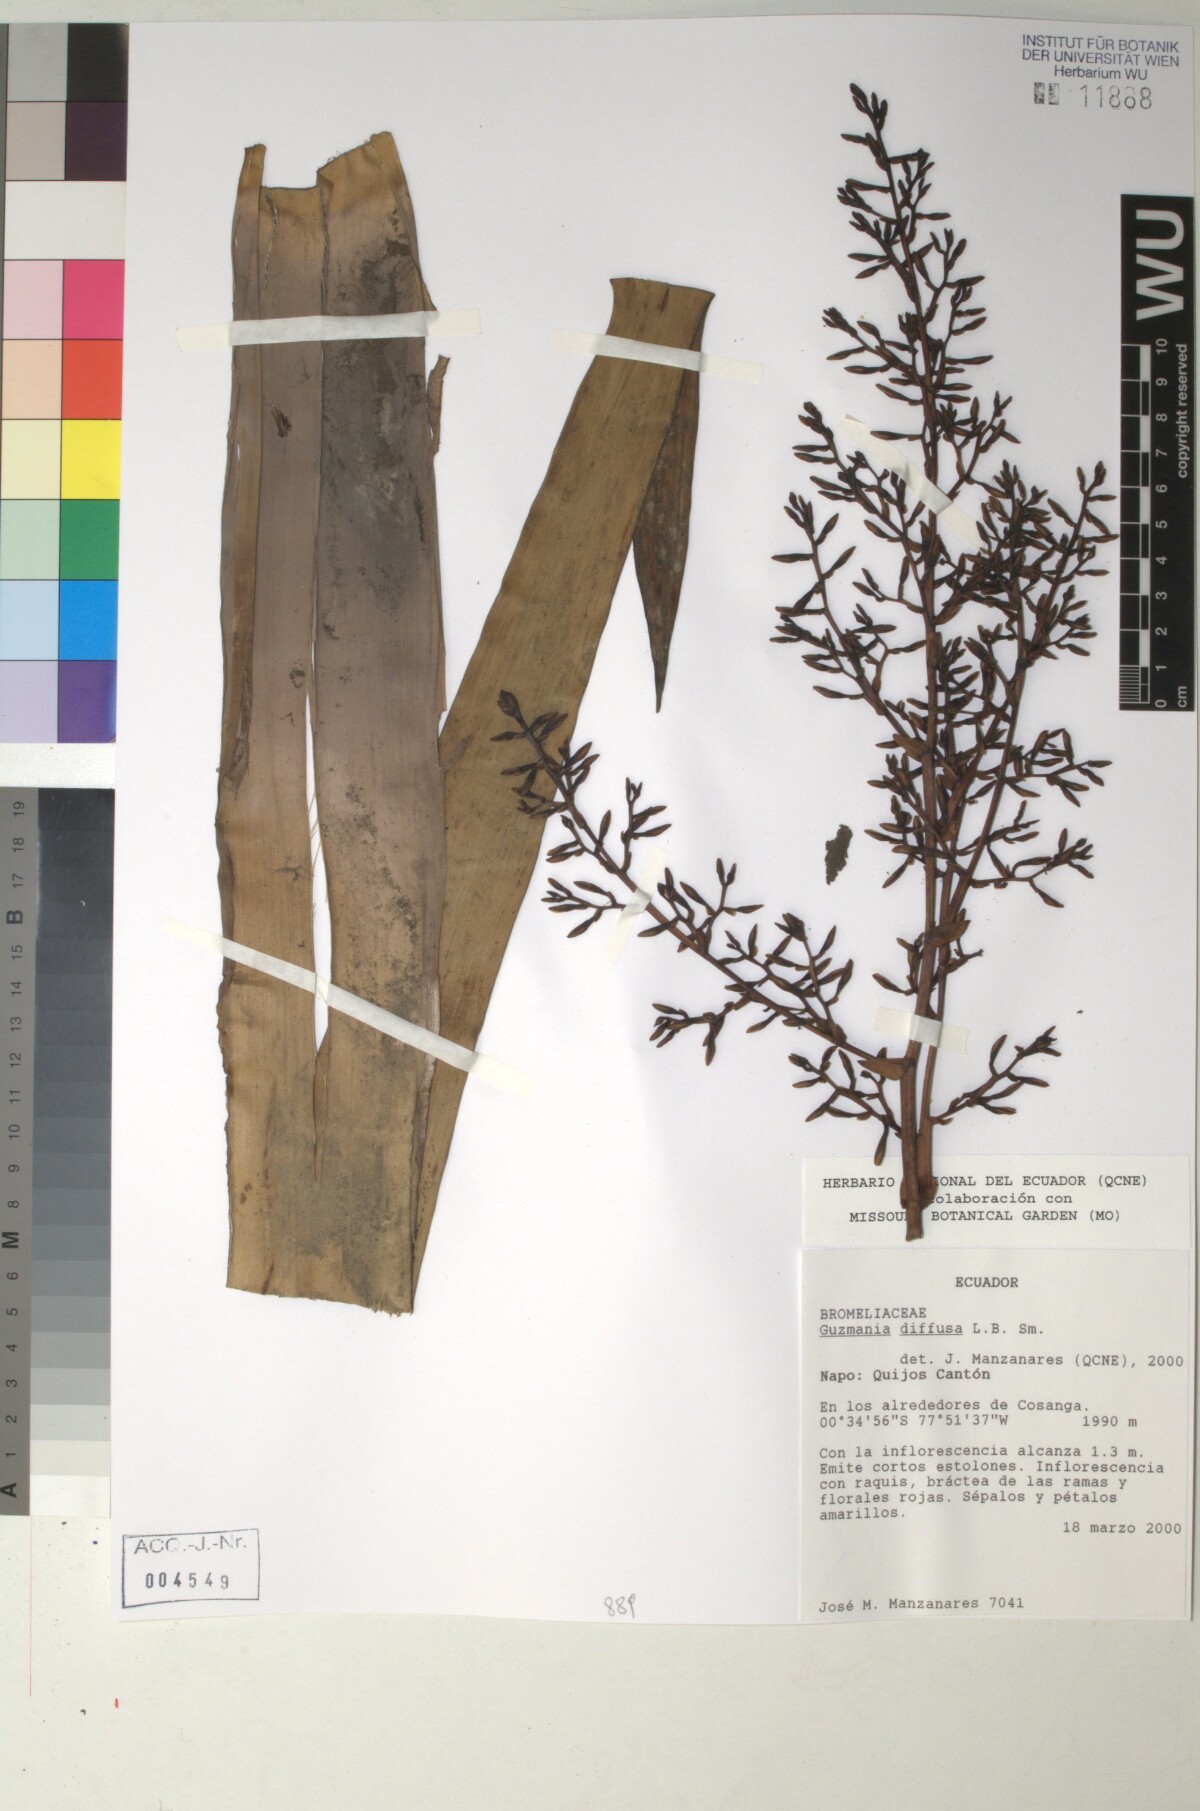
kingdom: Plantae
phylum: Tracheophyta
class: Liliopsida
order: Poales
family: Bromeliaceae
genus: Guzmania
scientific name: Guzmania diffusa
